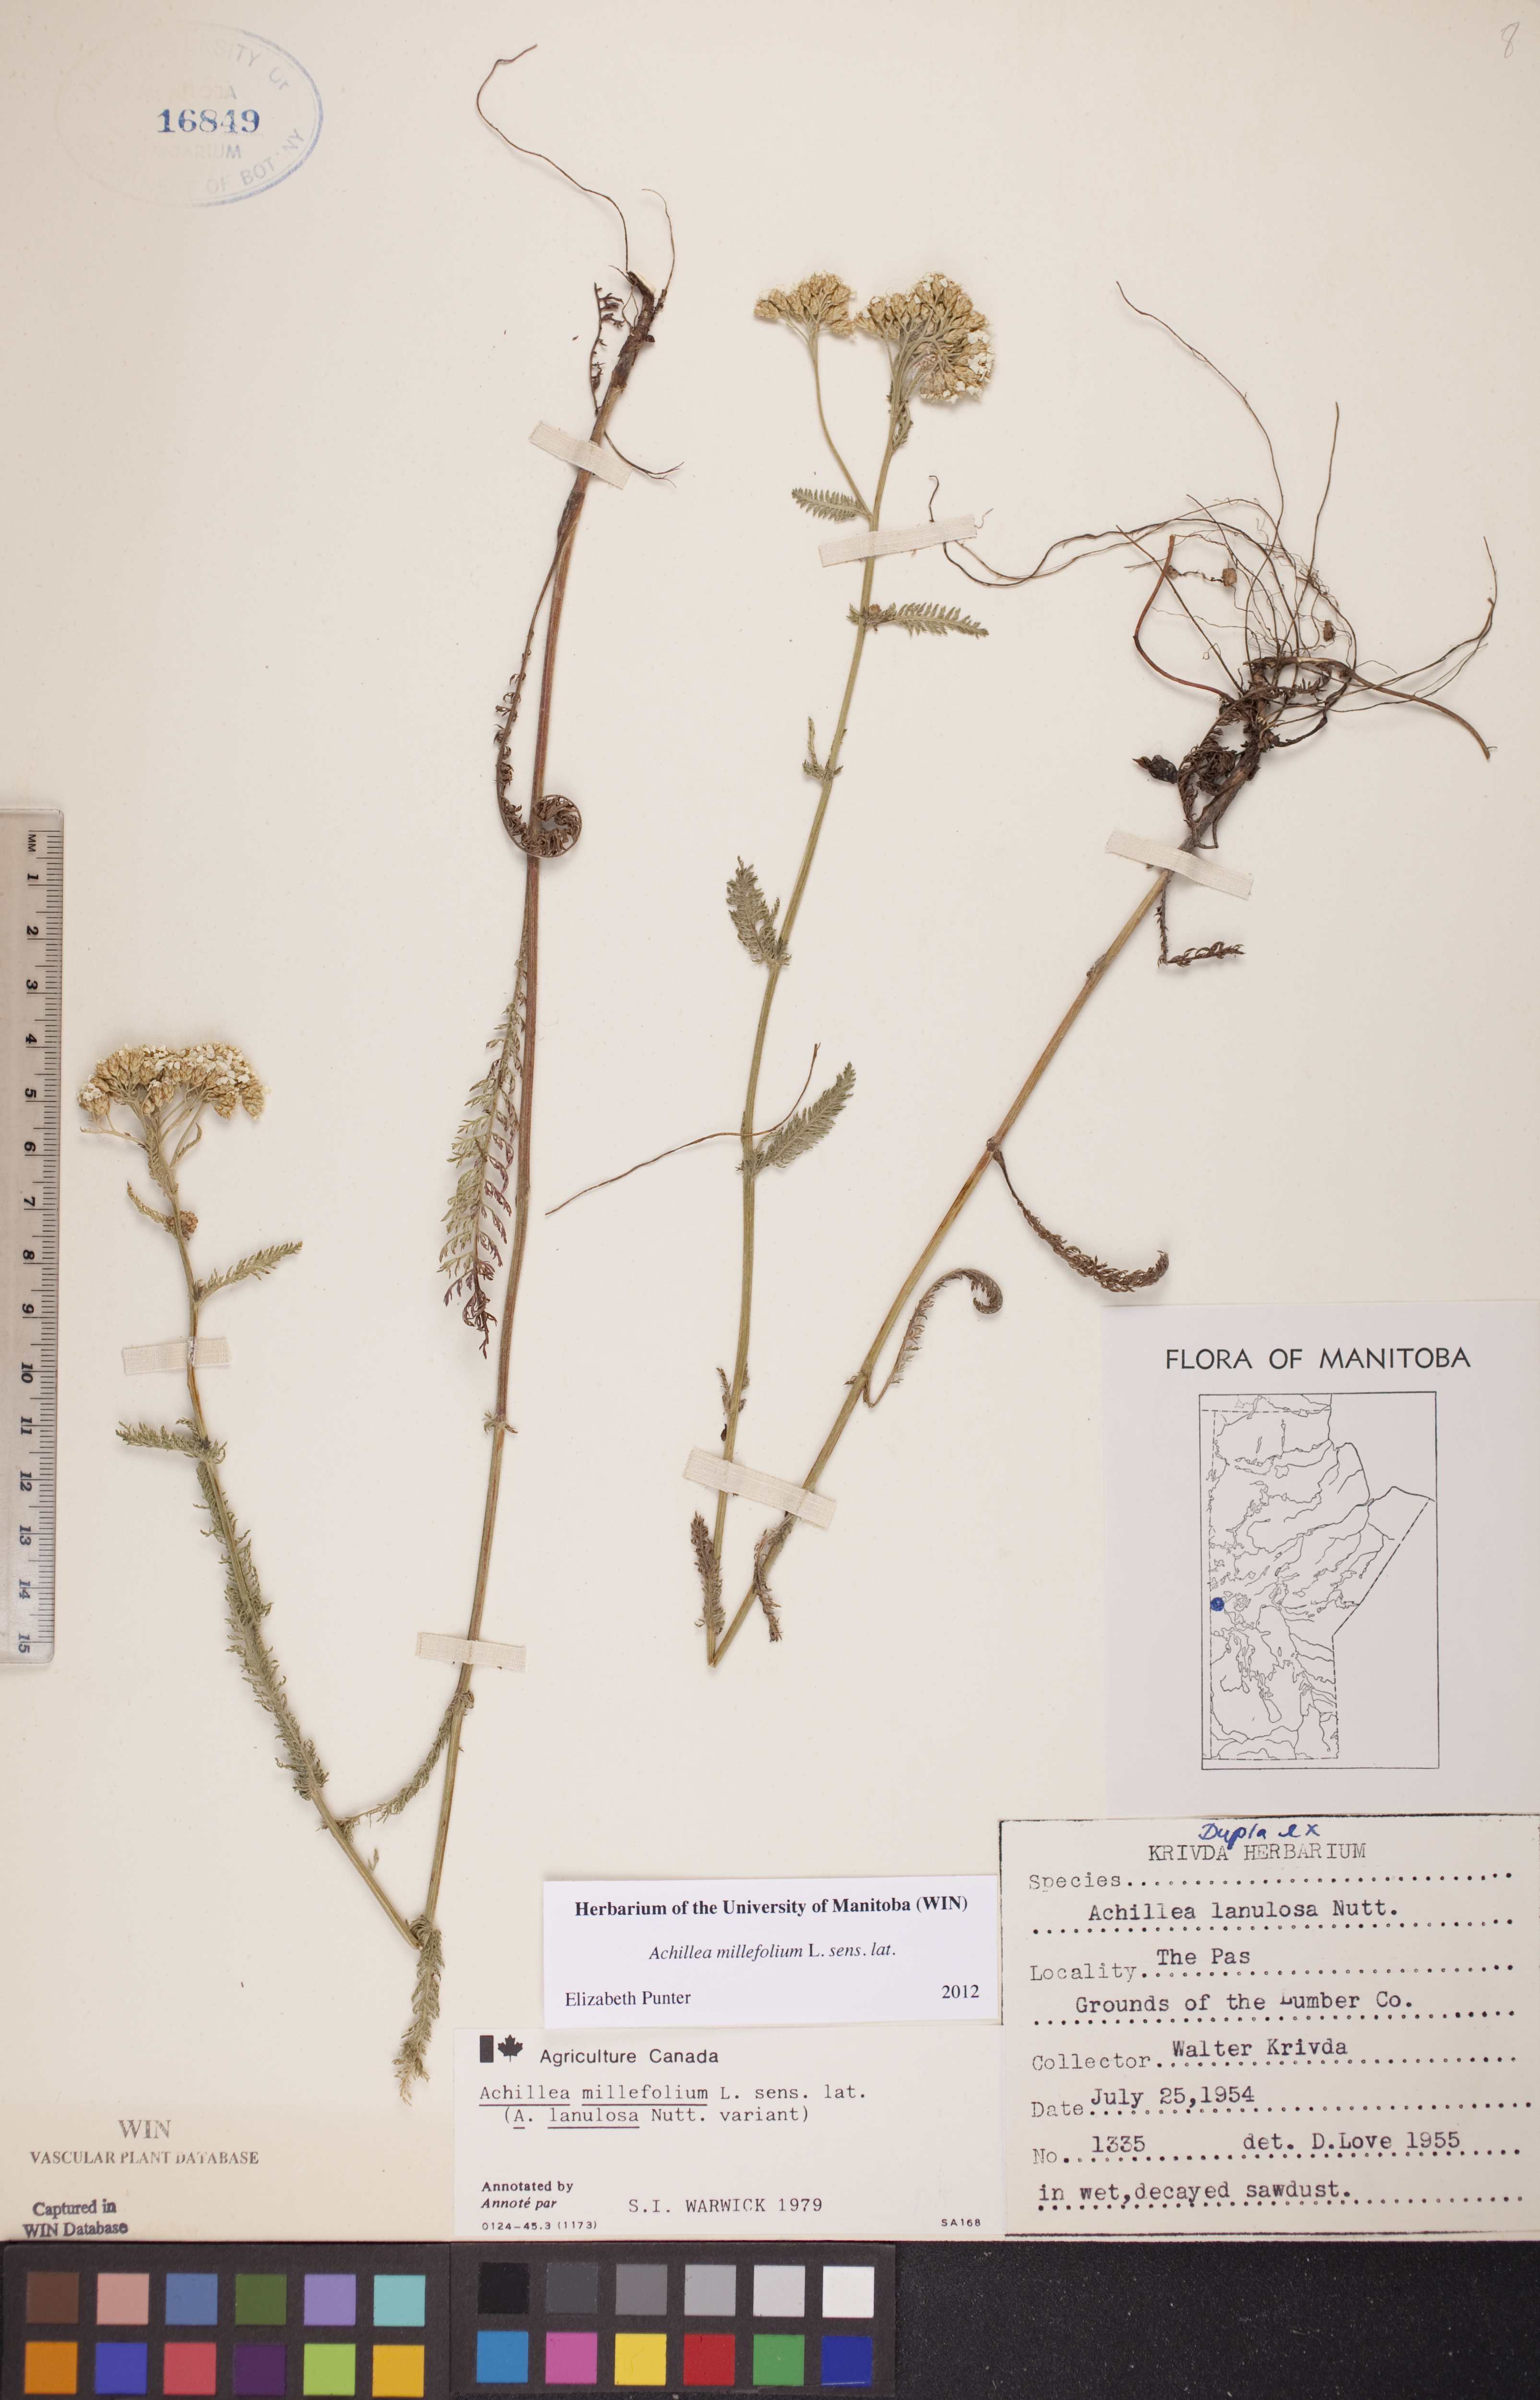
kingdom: Plantae
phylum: Tracheophyta
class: Magnoliopsida
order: Asterales
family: Asteraceae
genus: Achillea
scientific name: Achillea millefolium
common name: Yarrow
